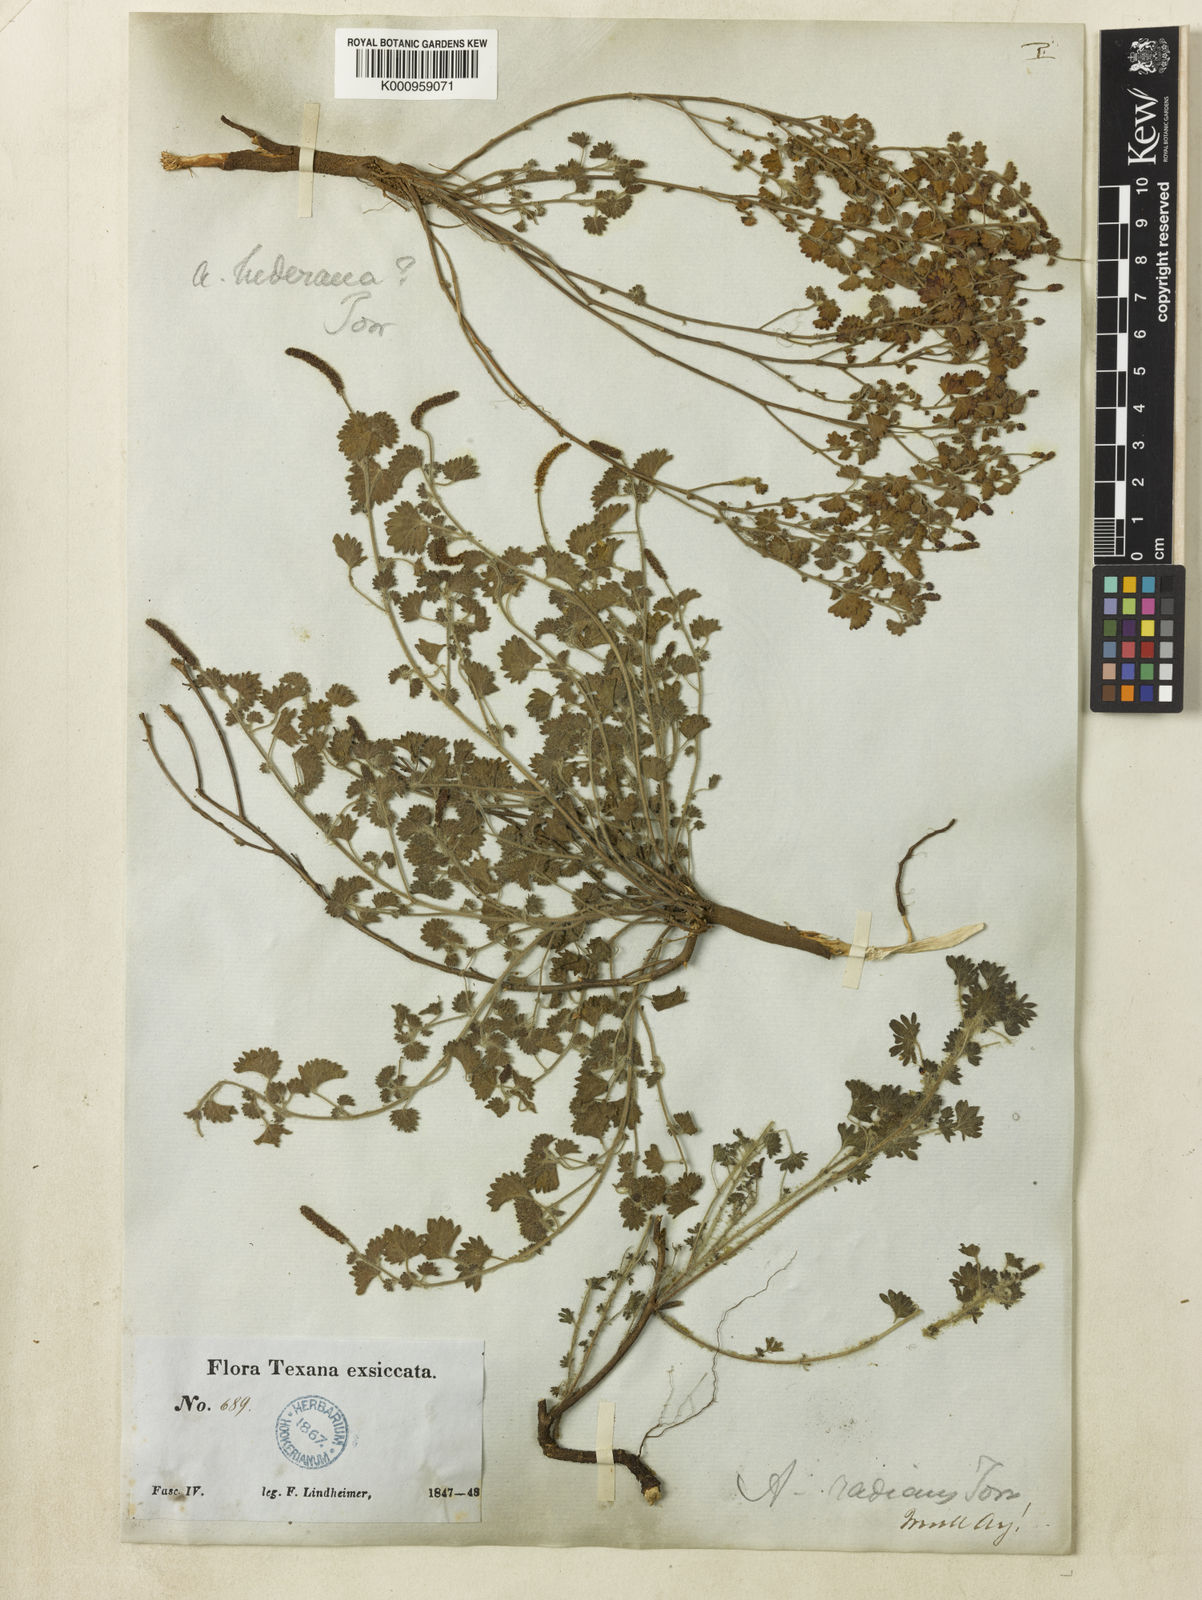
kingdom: Plantae
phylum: Tracheophyta
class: Magnoliopsida
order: Malpighiales
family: Euphorbiaceae
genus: Acalypha
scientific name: Acalypha radians
